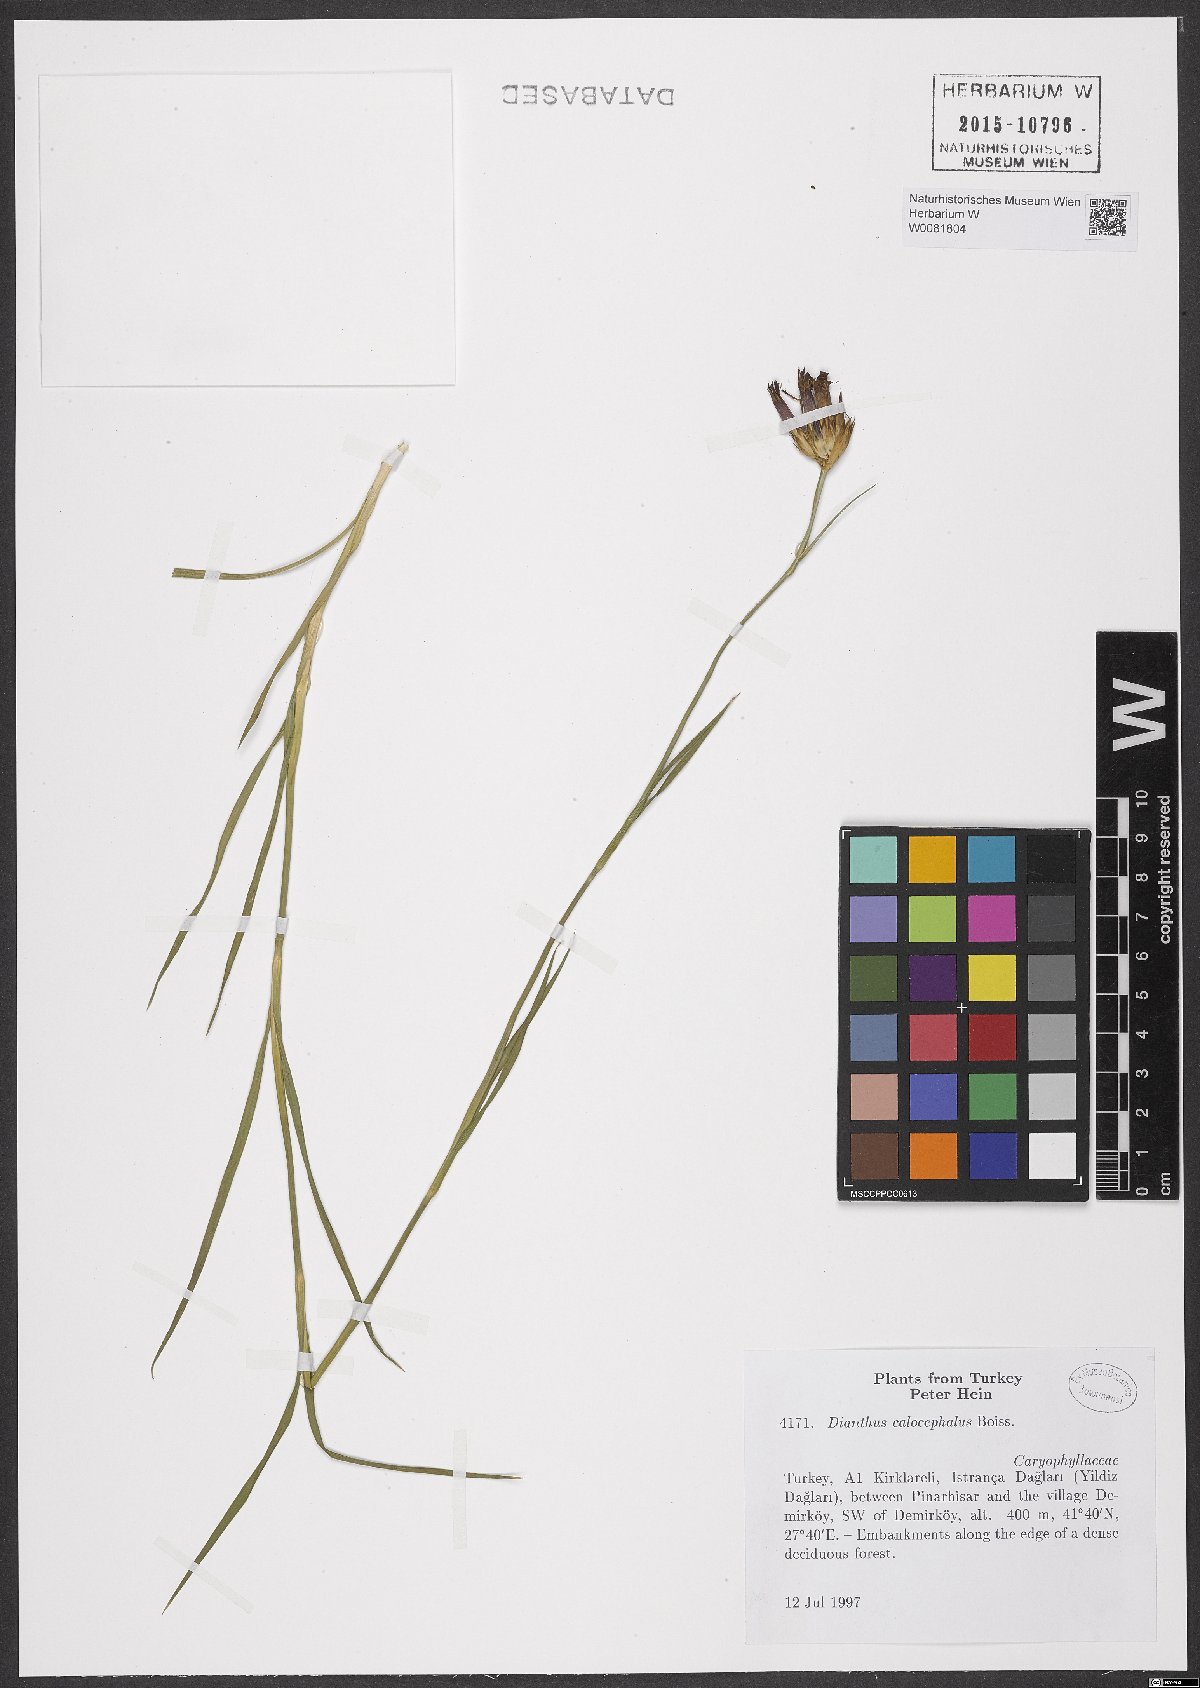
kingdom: Plantae
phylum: Tracheophyta
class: Magnoliopsida
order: Caryophyllales
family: Caryophyllaceae
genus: Dianthus
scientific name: Dianthus cruentus
